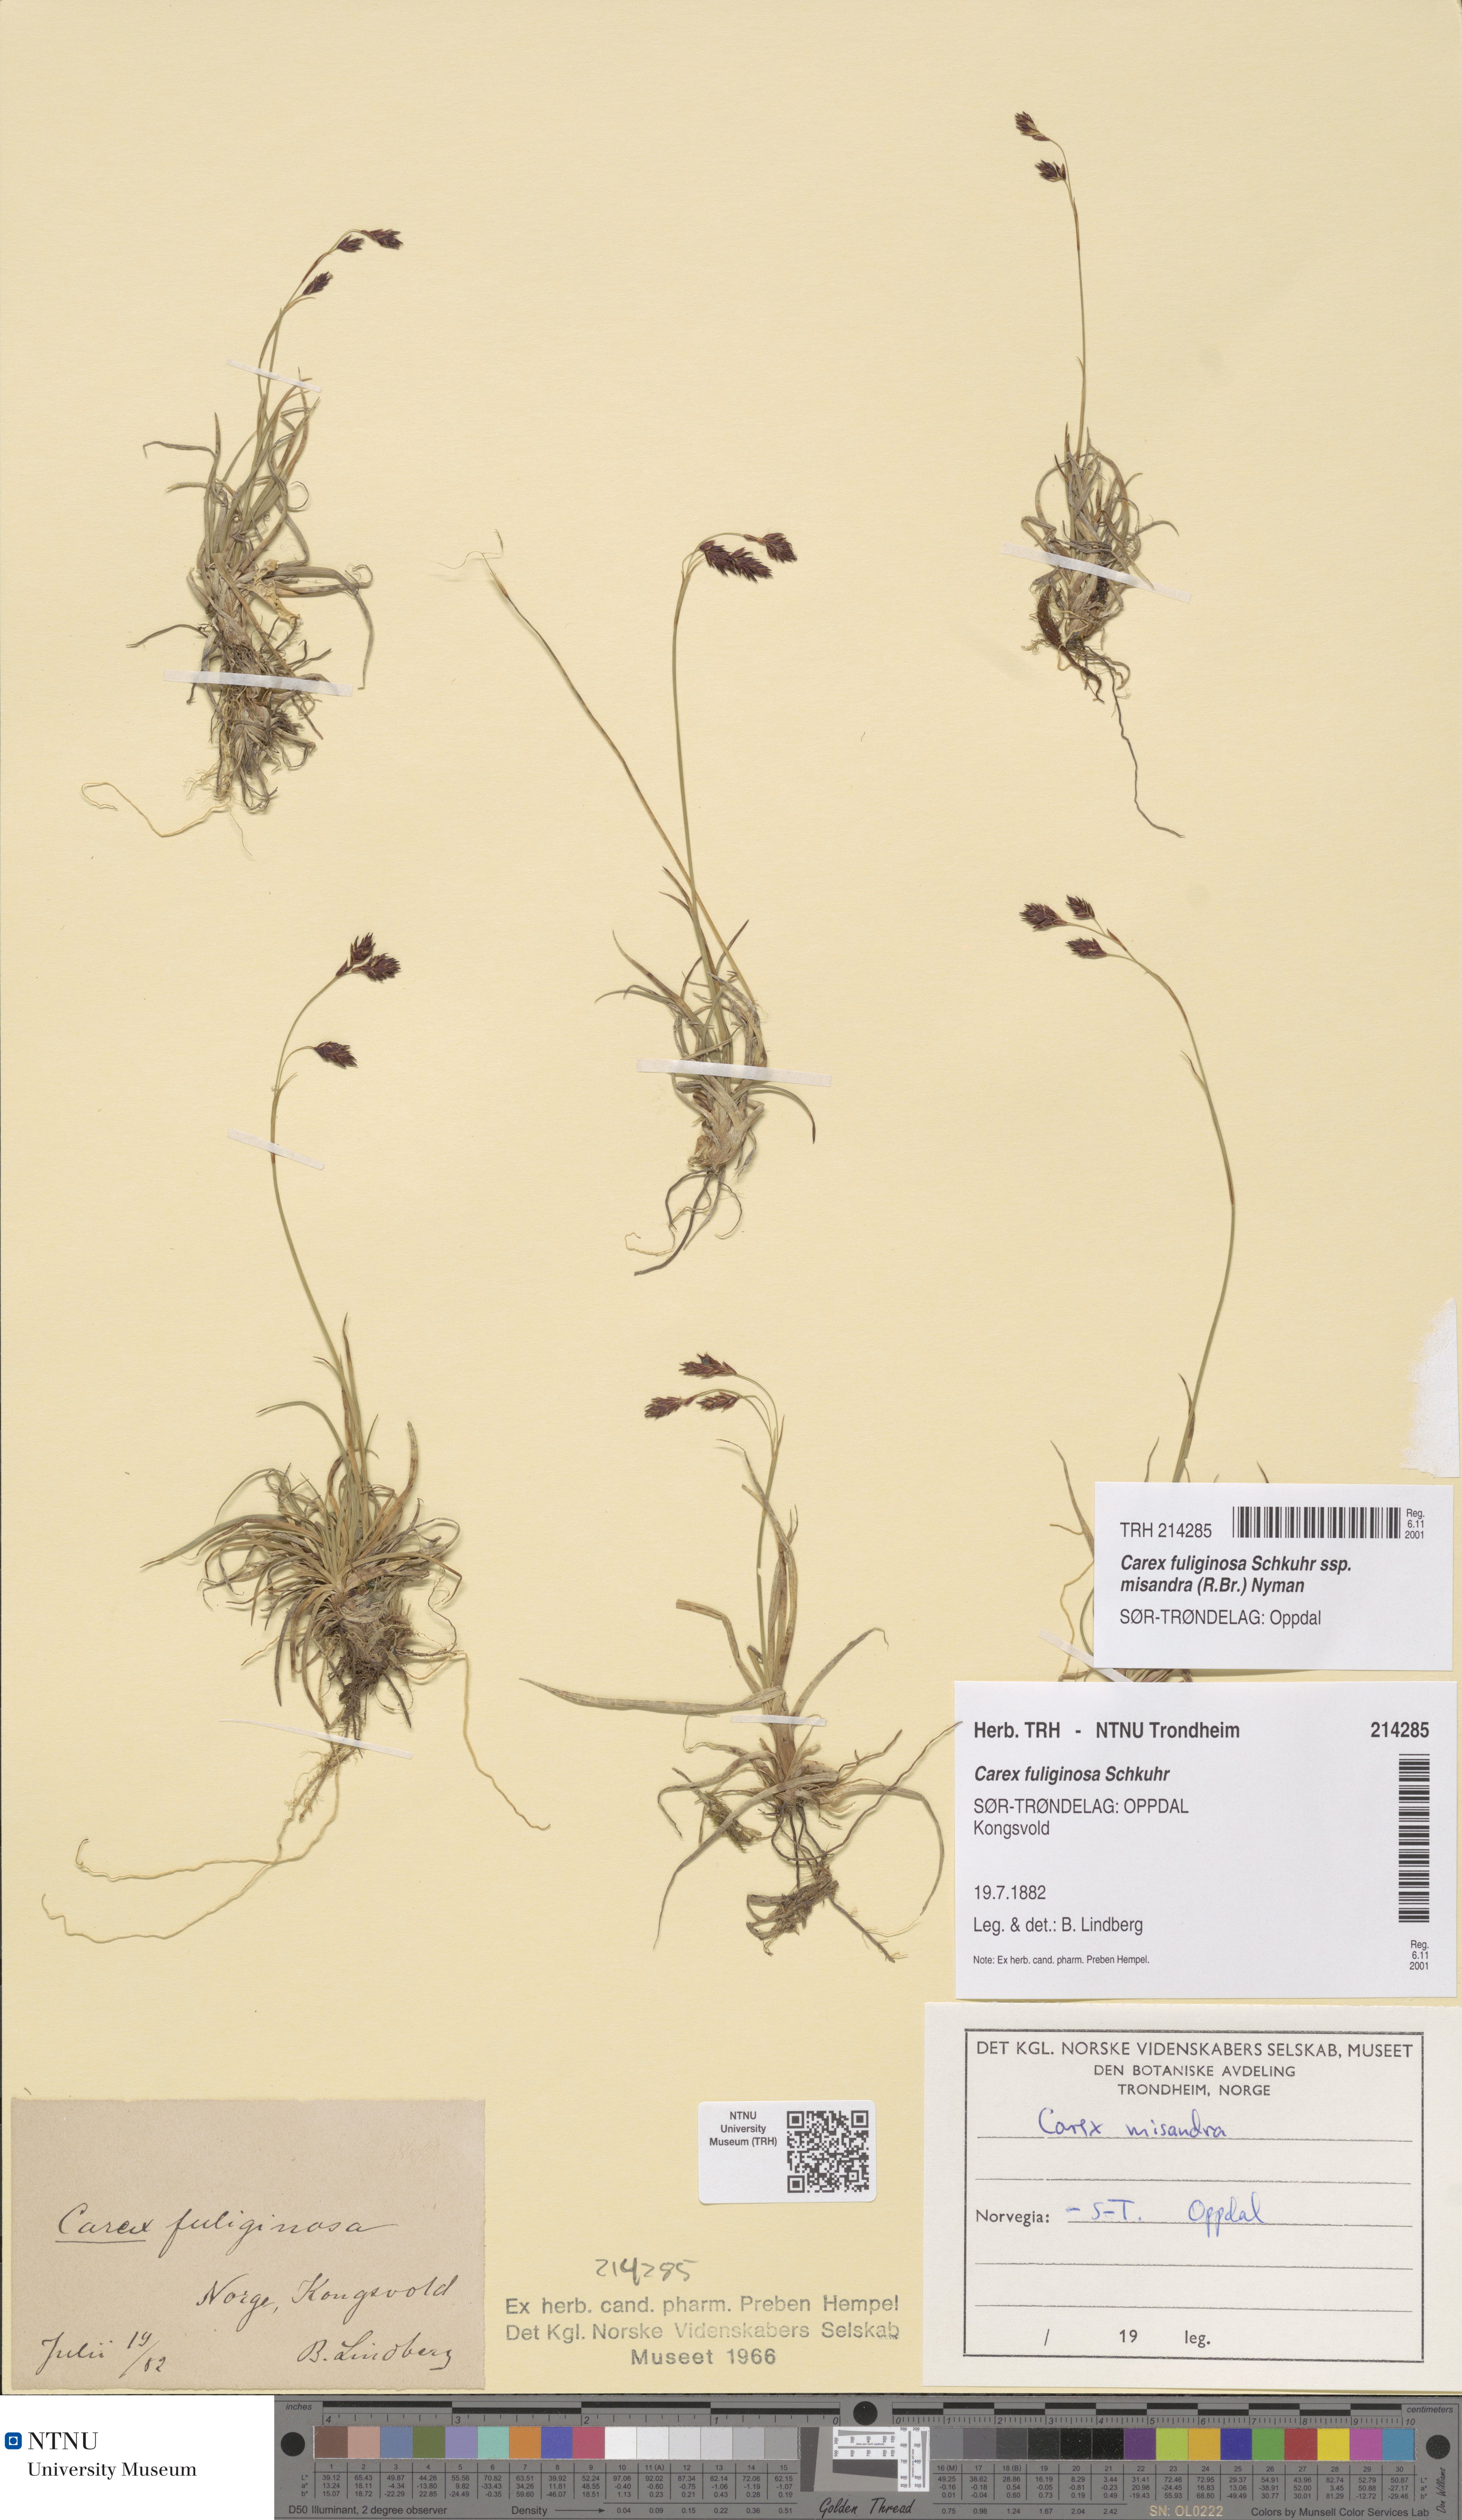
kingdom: Plantae
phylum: Tracheophyta
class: Liliopsida
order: Poales
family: Cyperaceae
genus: Carex
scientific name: Carex fuliginosa
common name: Few-flowered sedge
